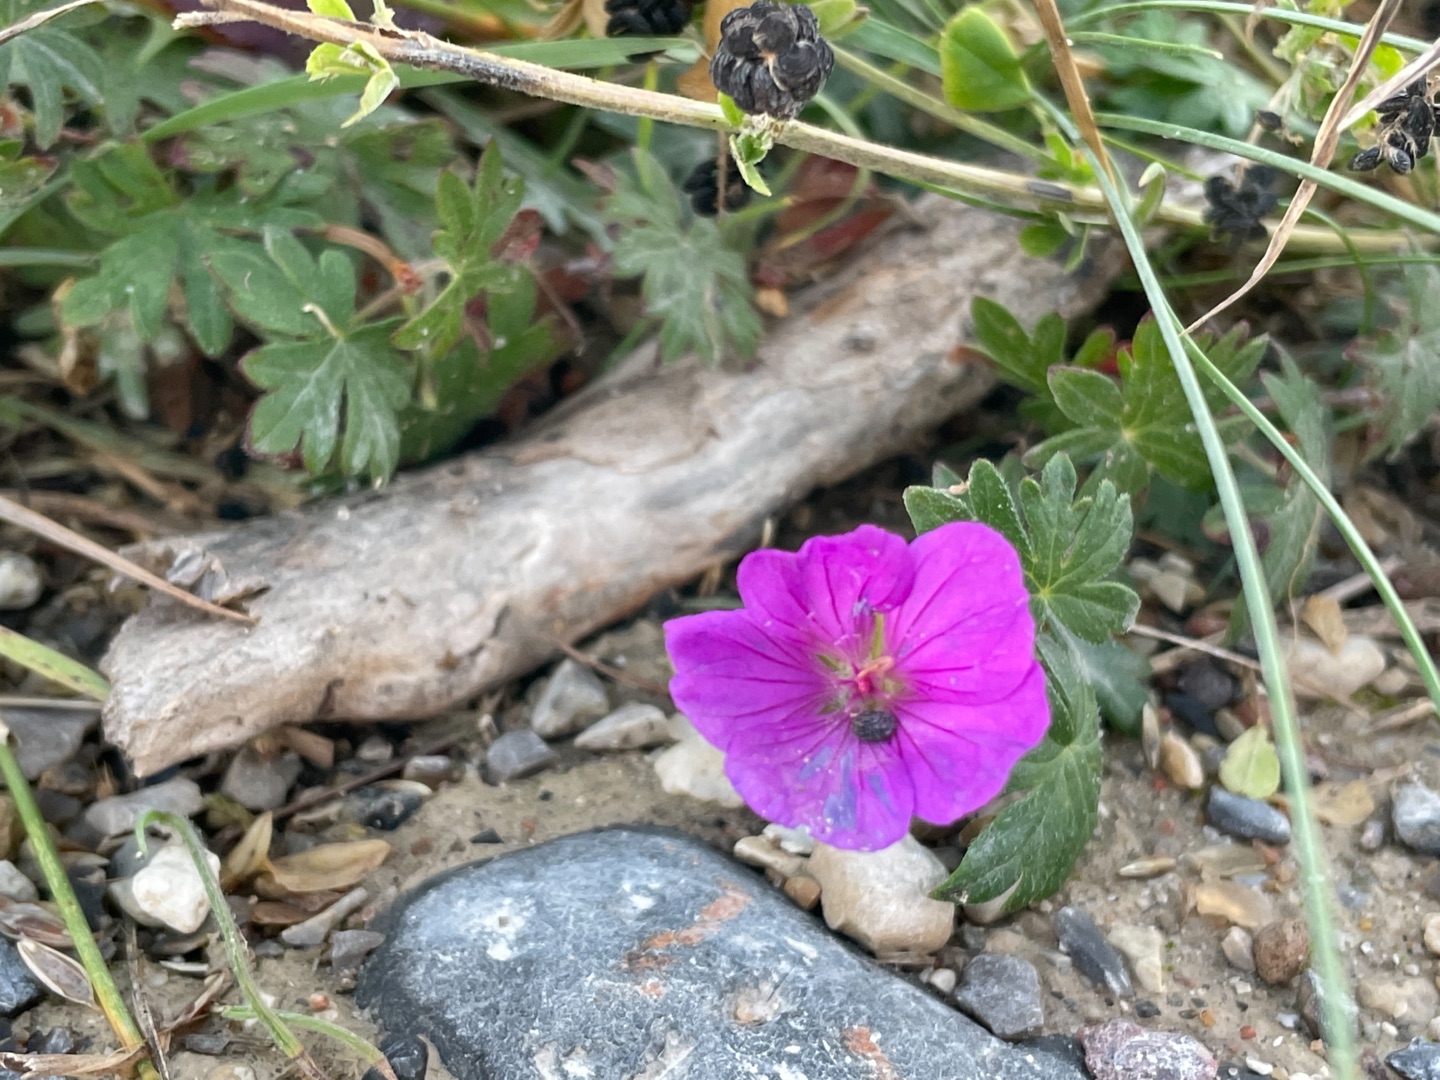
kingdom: Plantae
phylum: Tracheophyta
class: Magnoliopsida
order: Geraniales
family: Geraniaceae
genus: Geranium
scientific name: Geranium sanguineum
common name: Blodrød storkenæb
